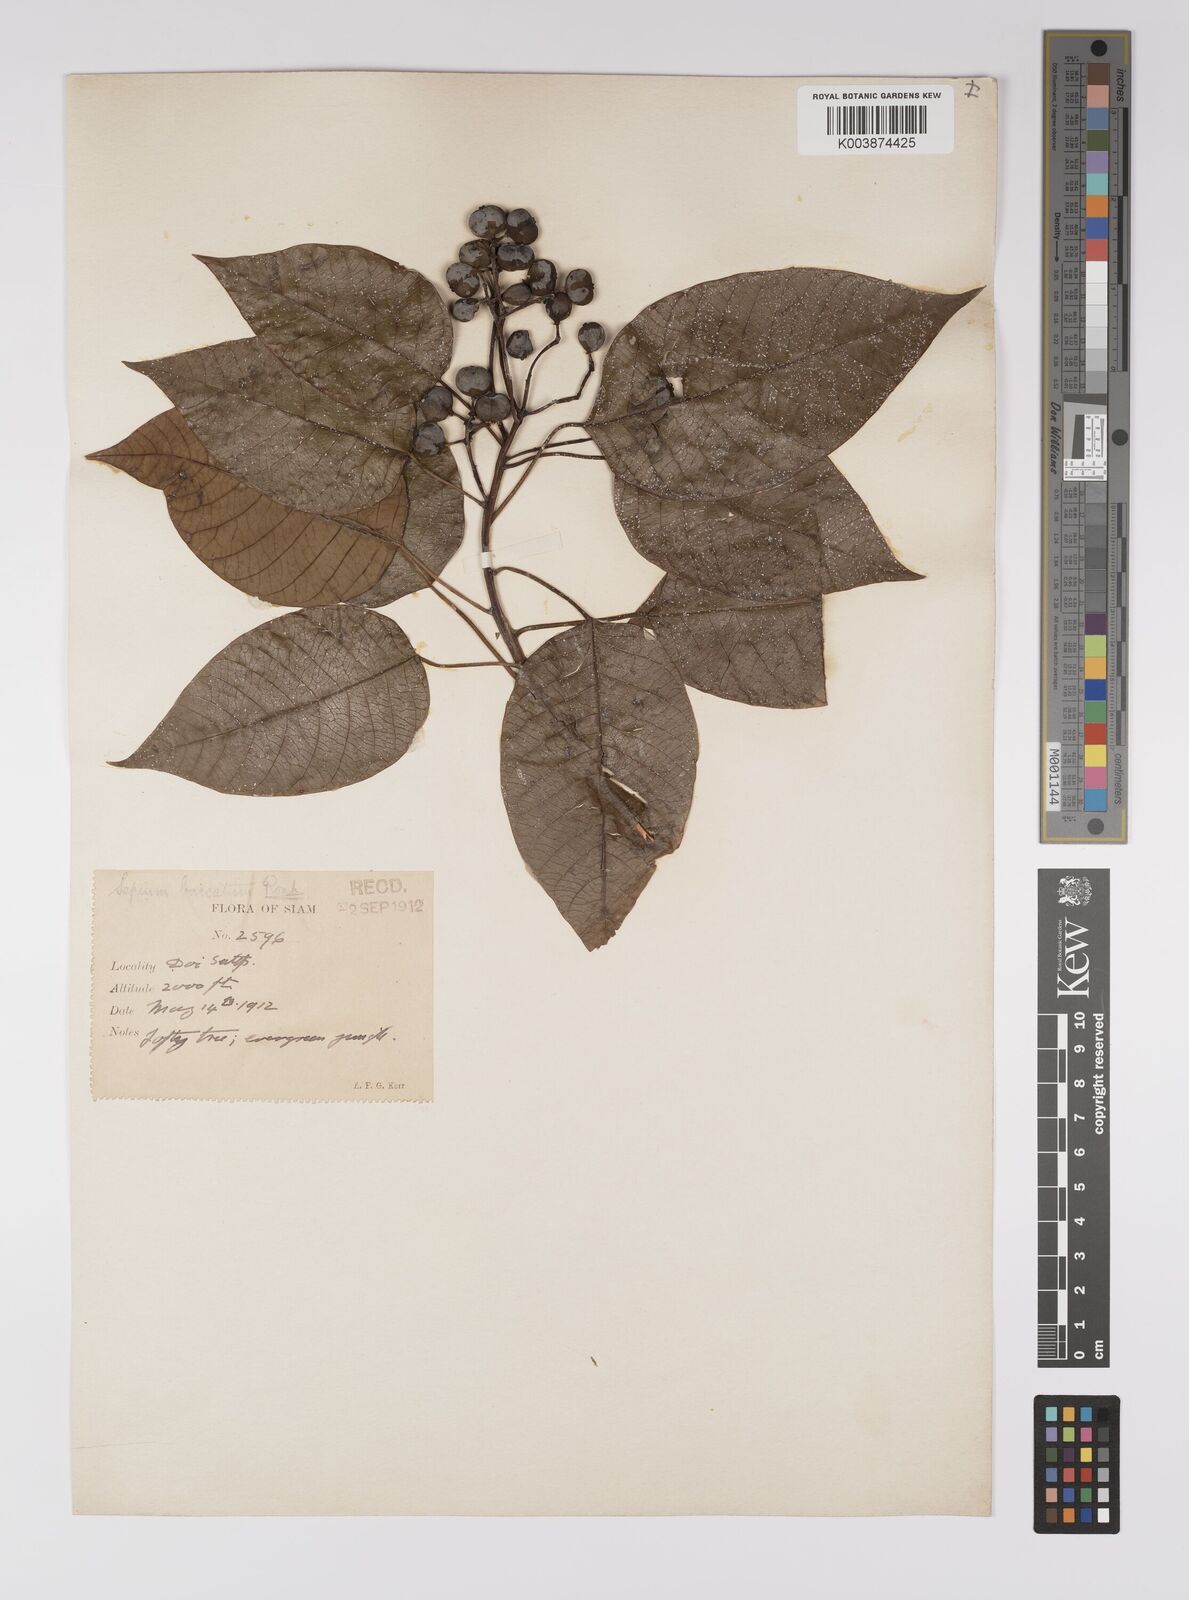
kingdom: Plantae
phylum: Tracheophyta
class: Magnoliopsida
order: Malpighiales
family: Euphorbiaceae
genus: Balakata
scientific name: Balakata baccata
